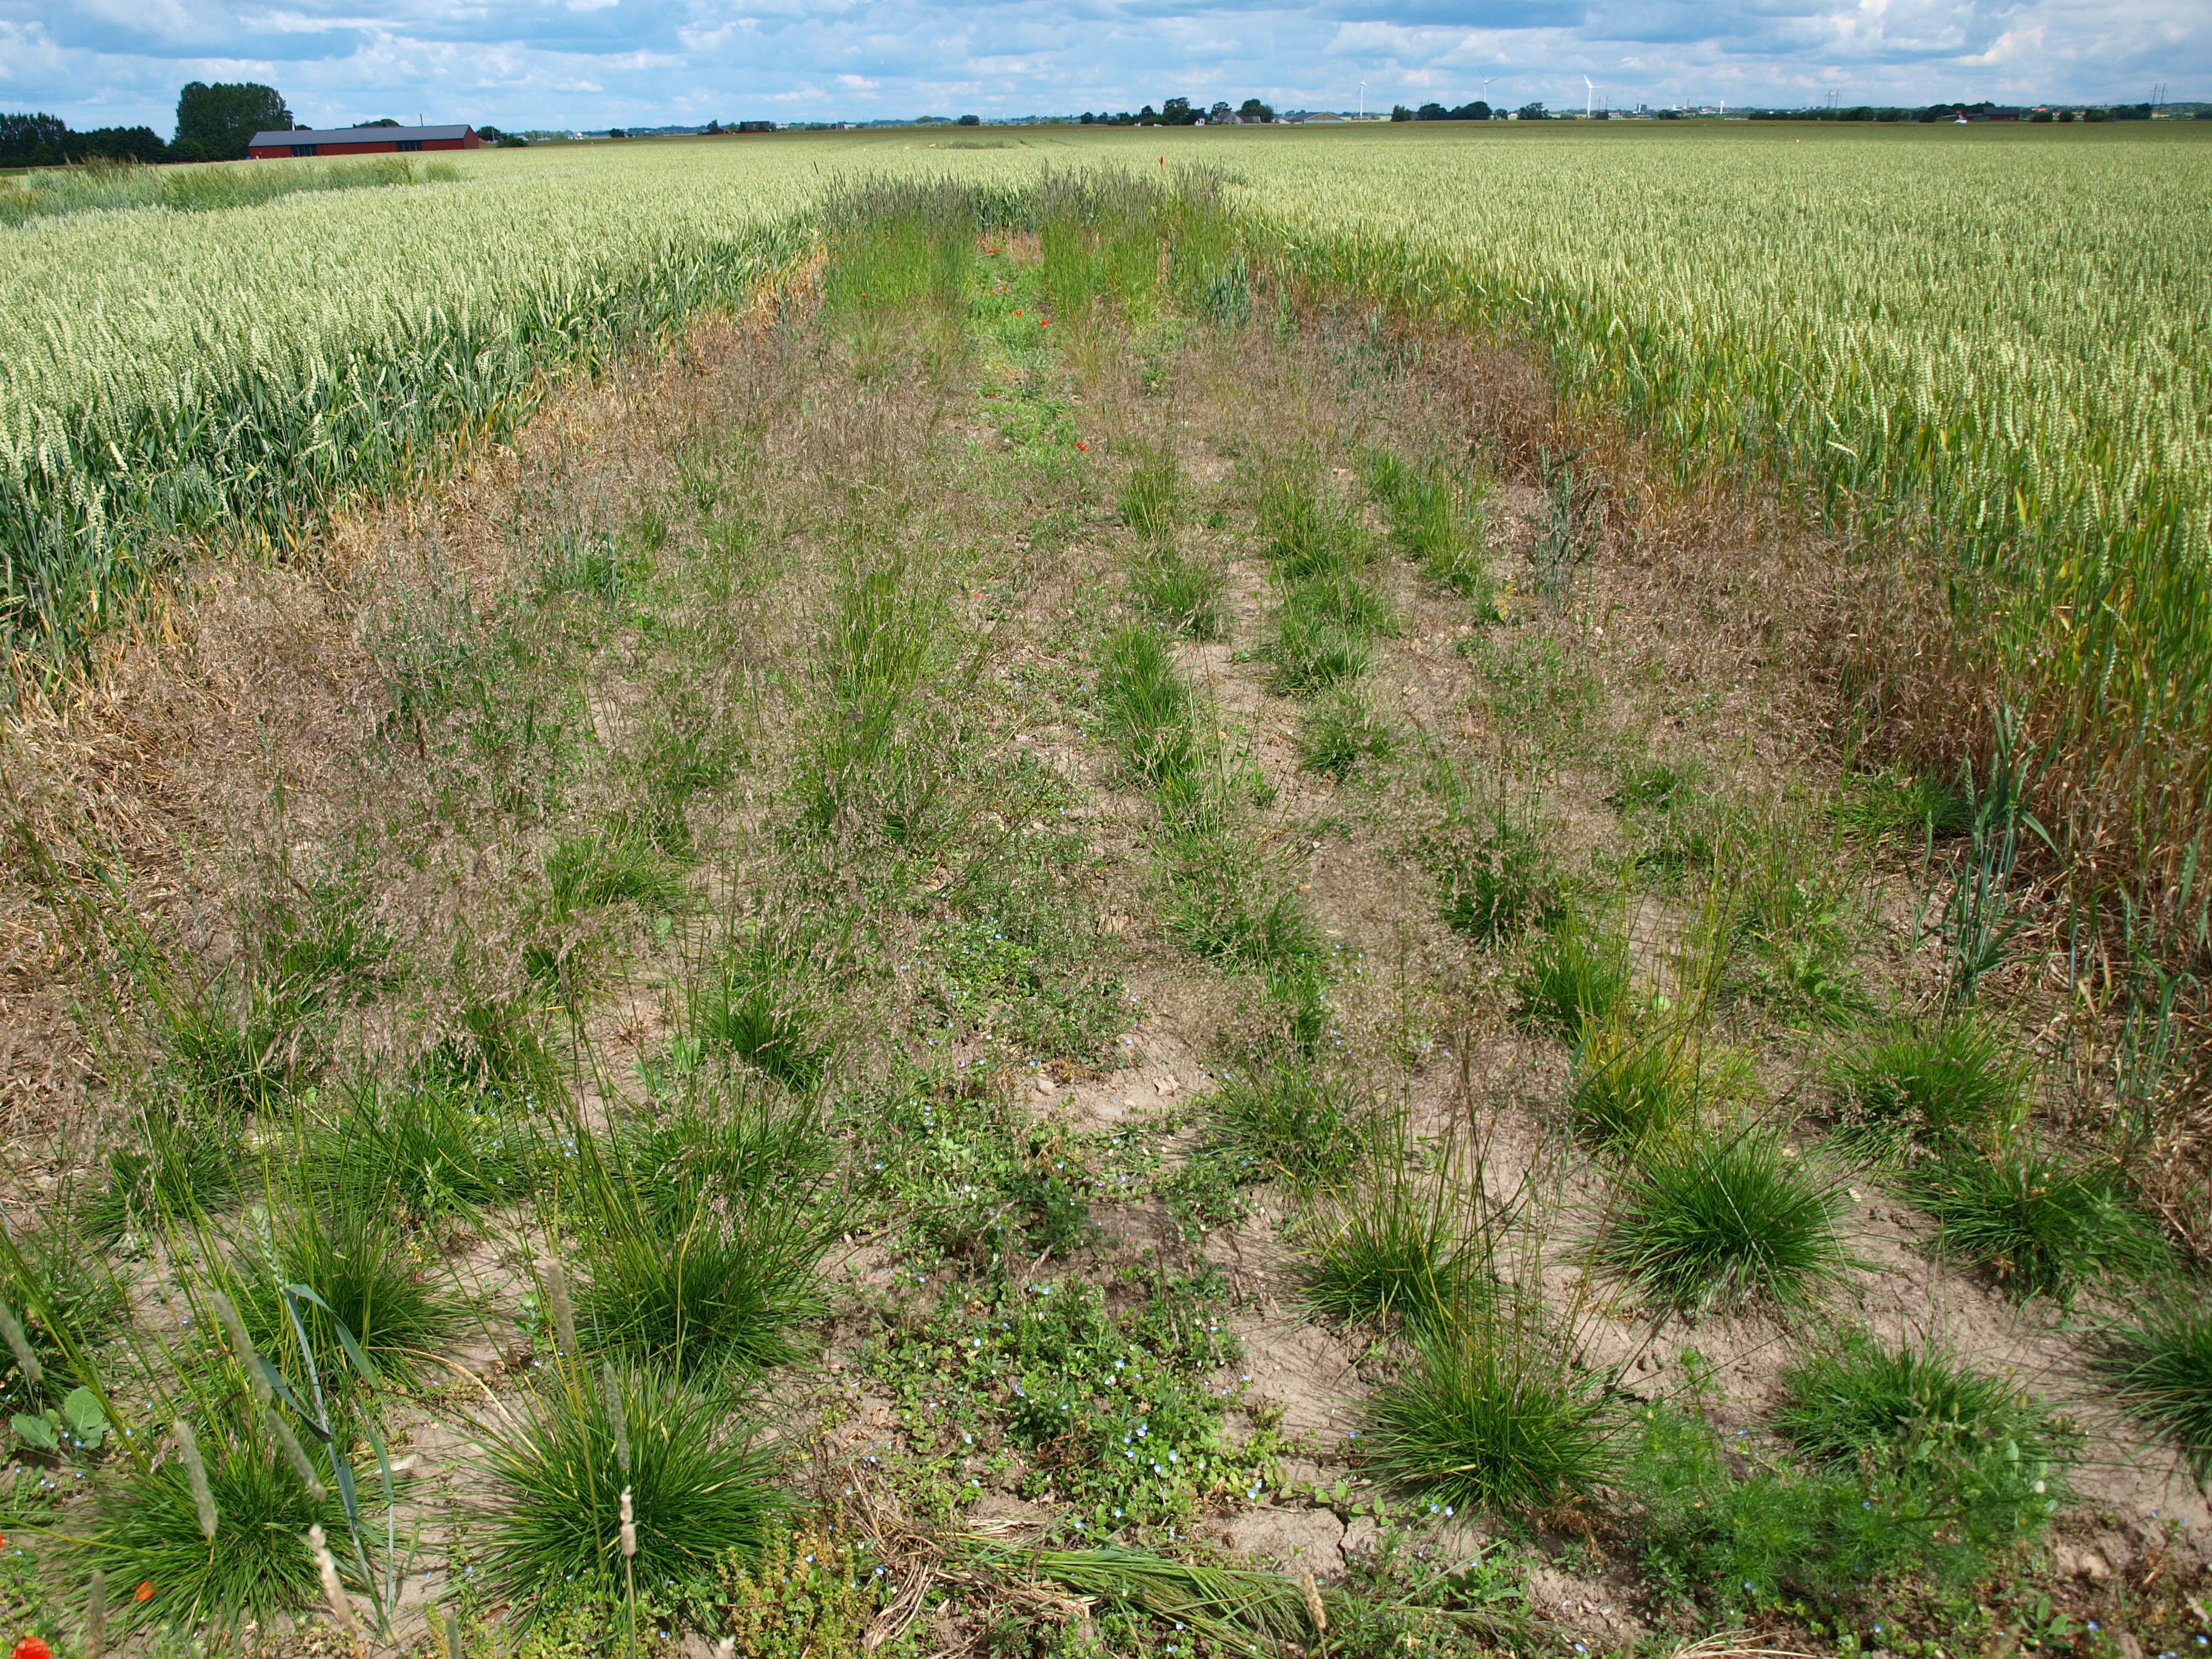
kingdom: Plantae
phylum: Tracheophyta
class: Liliopsida
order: Poales
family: Poaceae
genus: Deschampsia
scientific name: Deschampsia cespitosa
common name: Tufted hair-grass
